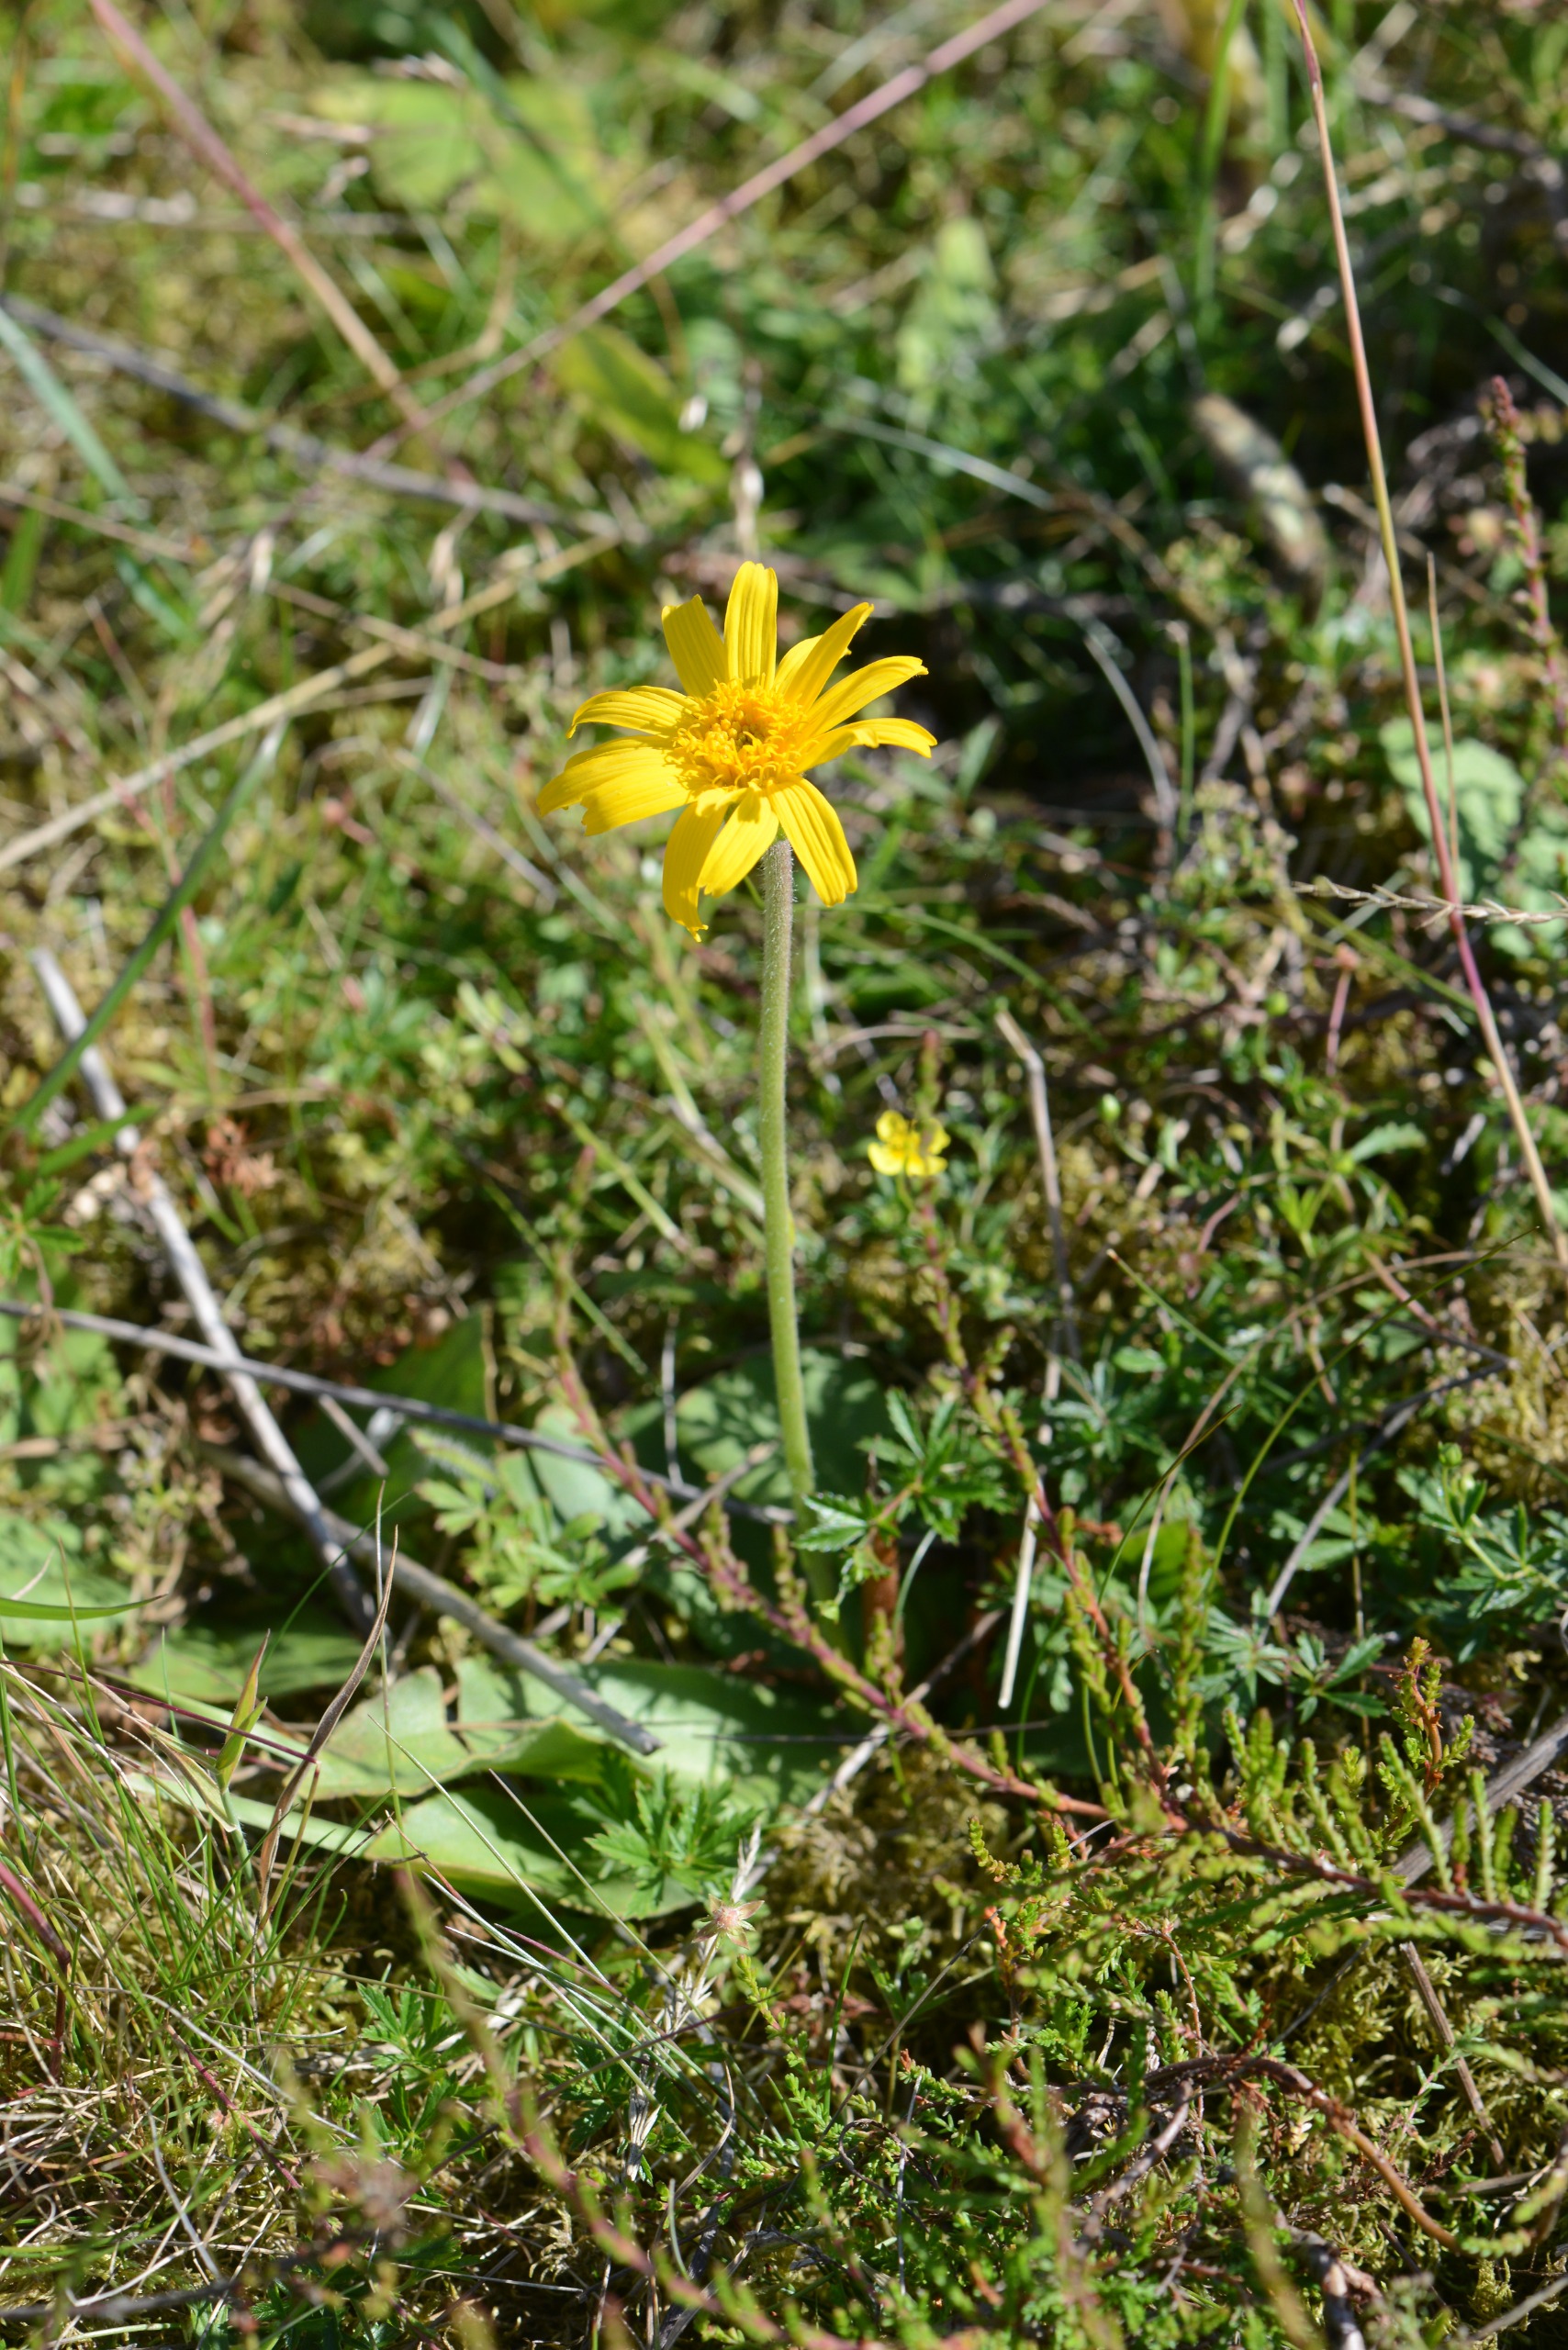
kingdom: Plantae
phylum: Tracheophyta
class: Magnoliopsida
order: Asterales
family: Asteraceae
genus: Arnica
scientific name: Arnica montana
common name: Guldblomme
